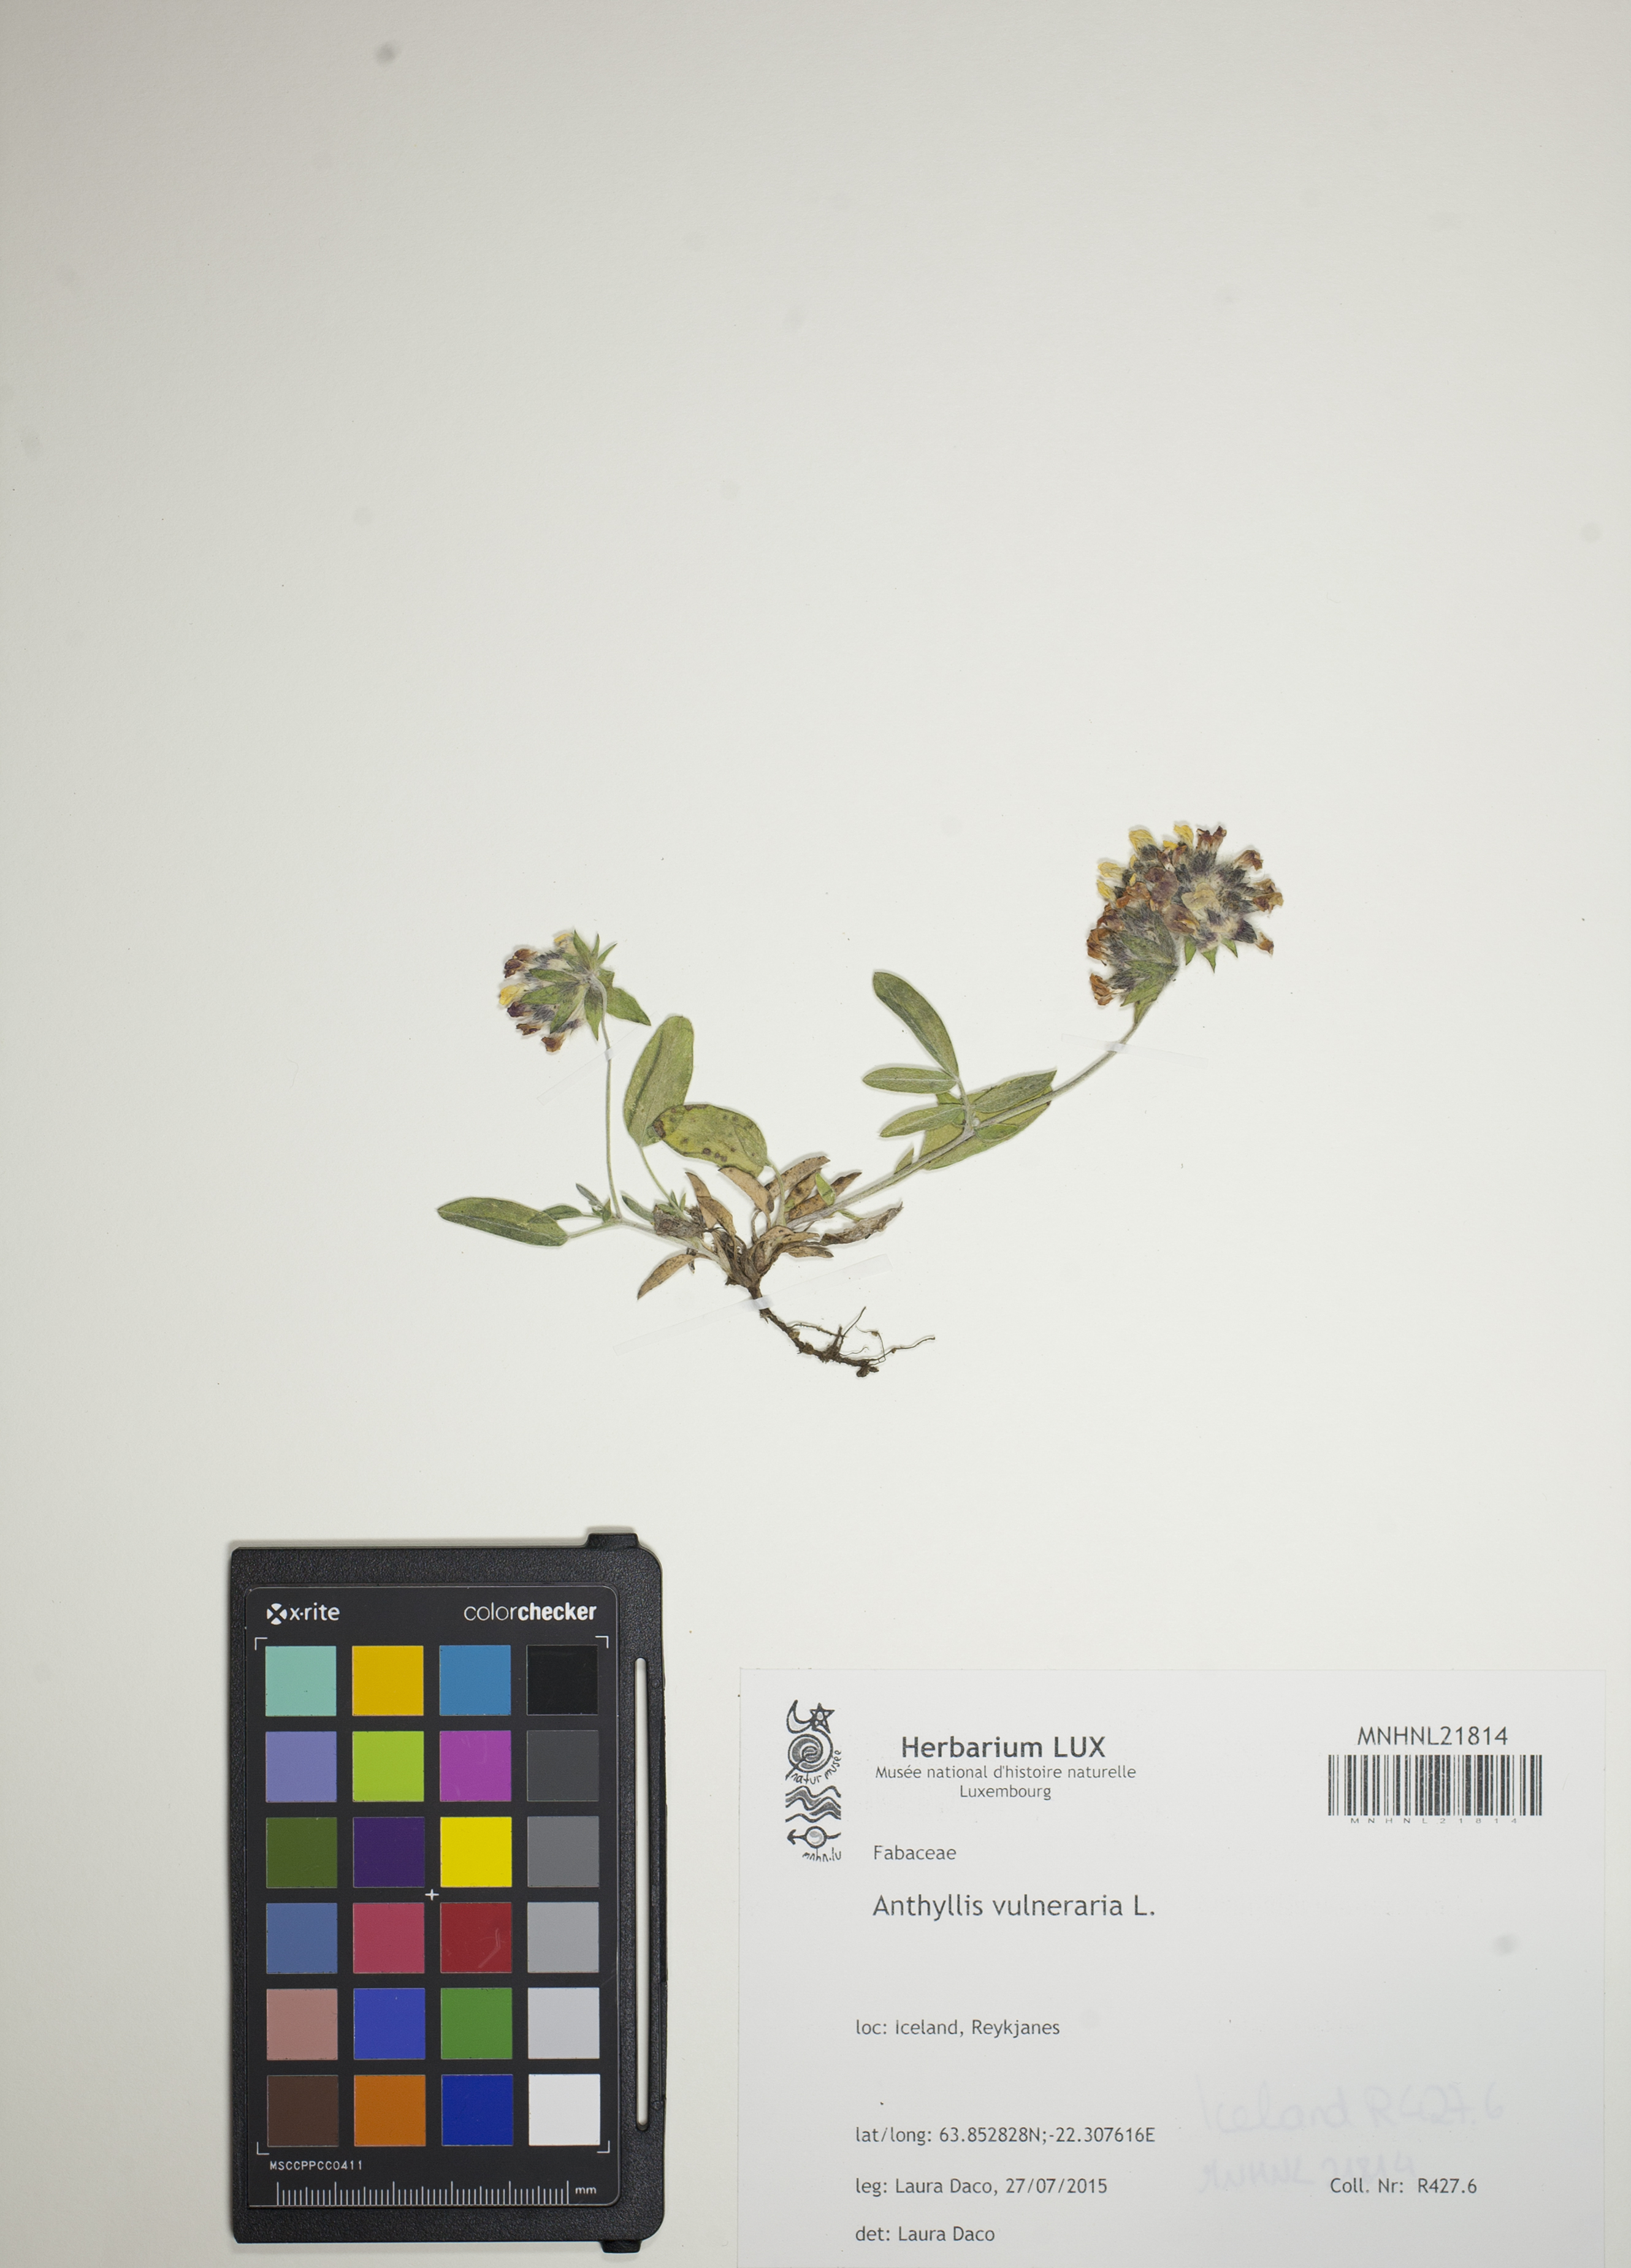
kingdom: Plantae
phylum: Tracheophyta
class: Magnoliopsida
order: Fabales
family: Fabaceae
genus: Anthyllis
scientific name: Anthyllis vulneraria
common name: Kidney vetch
